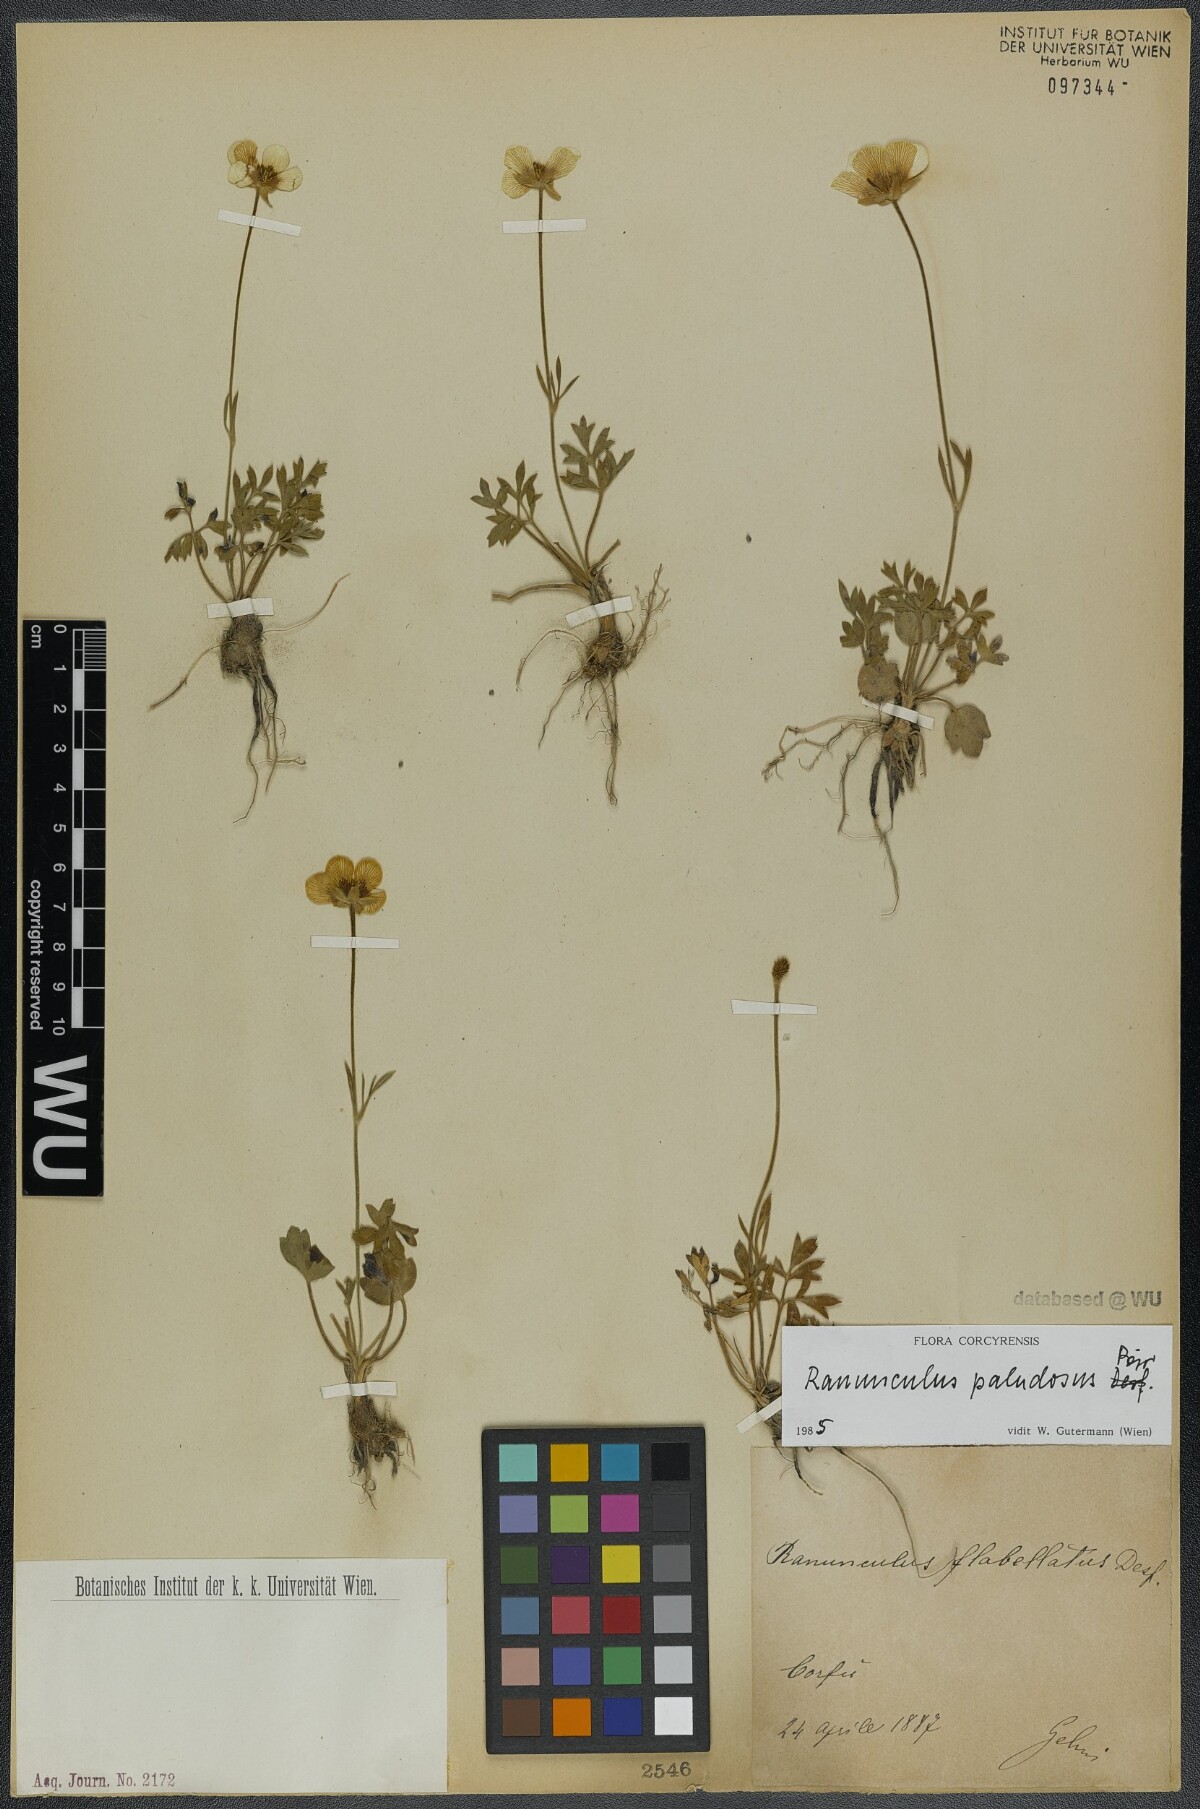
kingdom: Plantae
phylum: Tracheophyta
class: Magnoliopsida
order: Ranunculales
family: Ranunculaceae
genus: Ranunculus
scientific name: Ranunculus paludosus
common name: Jersey buttercup
